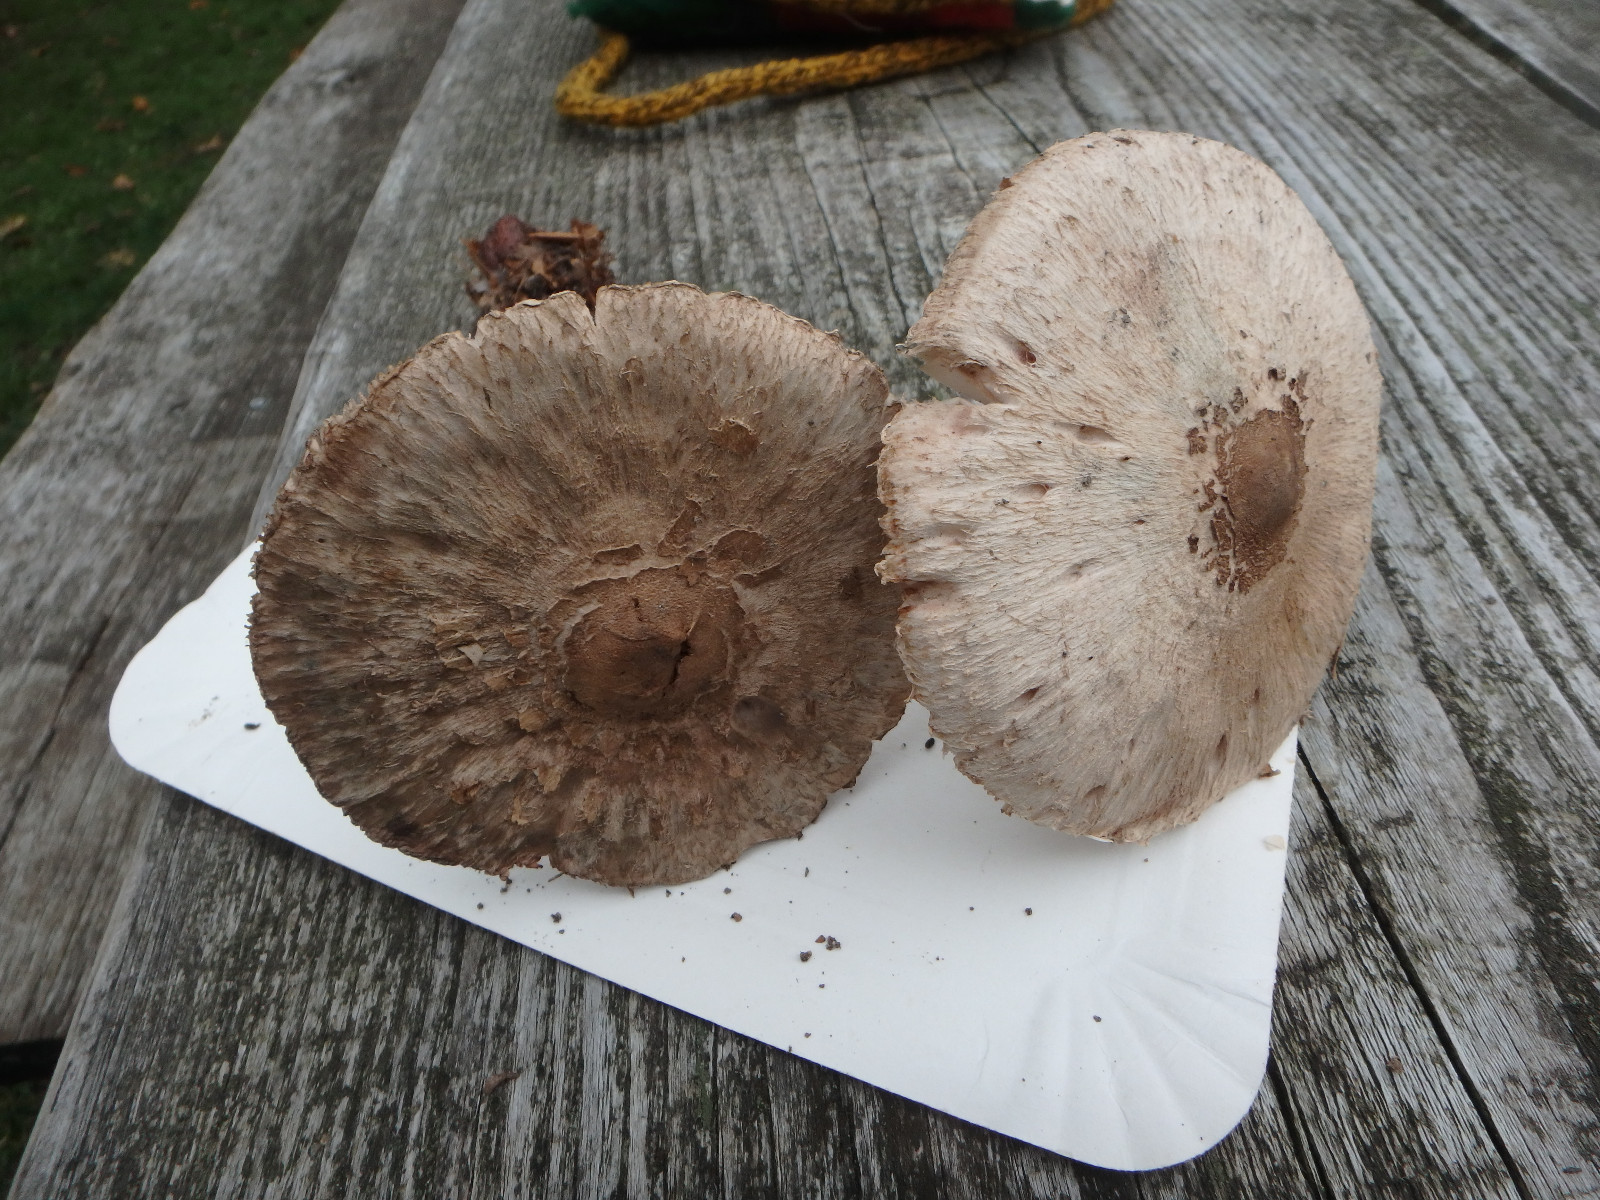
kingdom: Fungi
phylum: Basidiomycota
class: Agaricomycetes
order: Agaricales
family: Agaricaceae
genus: Macrolepiota
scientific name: Macrolepiota fuliginosa
